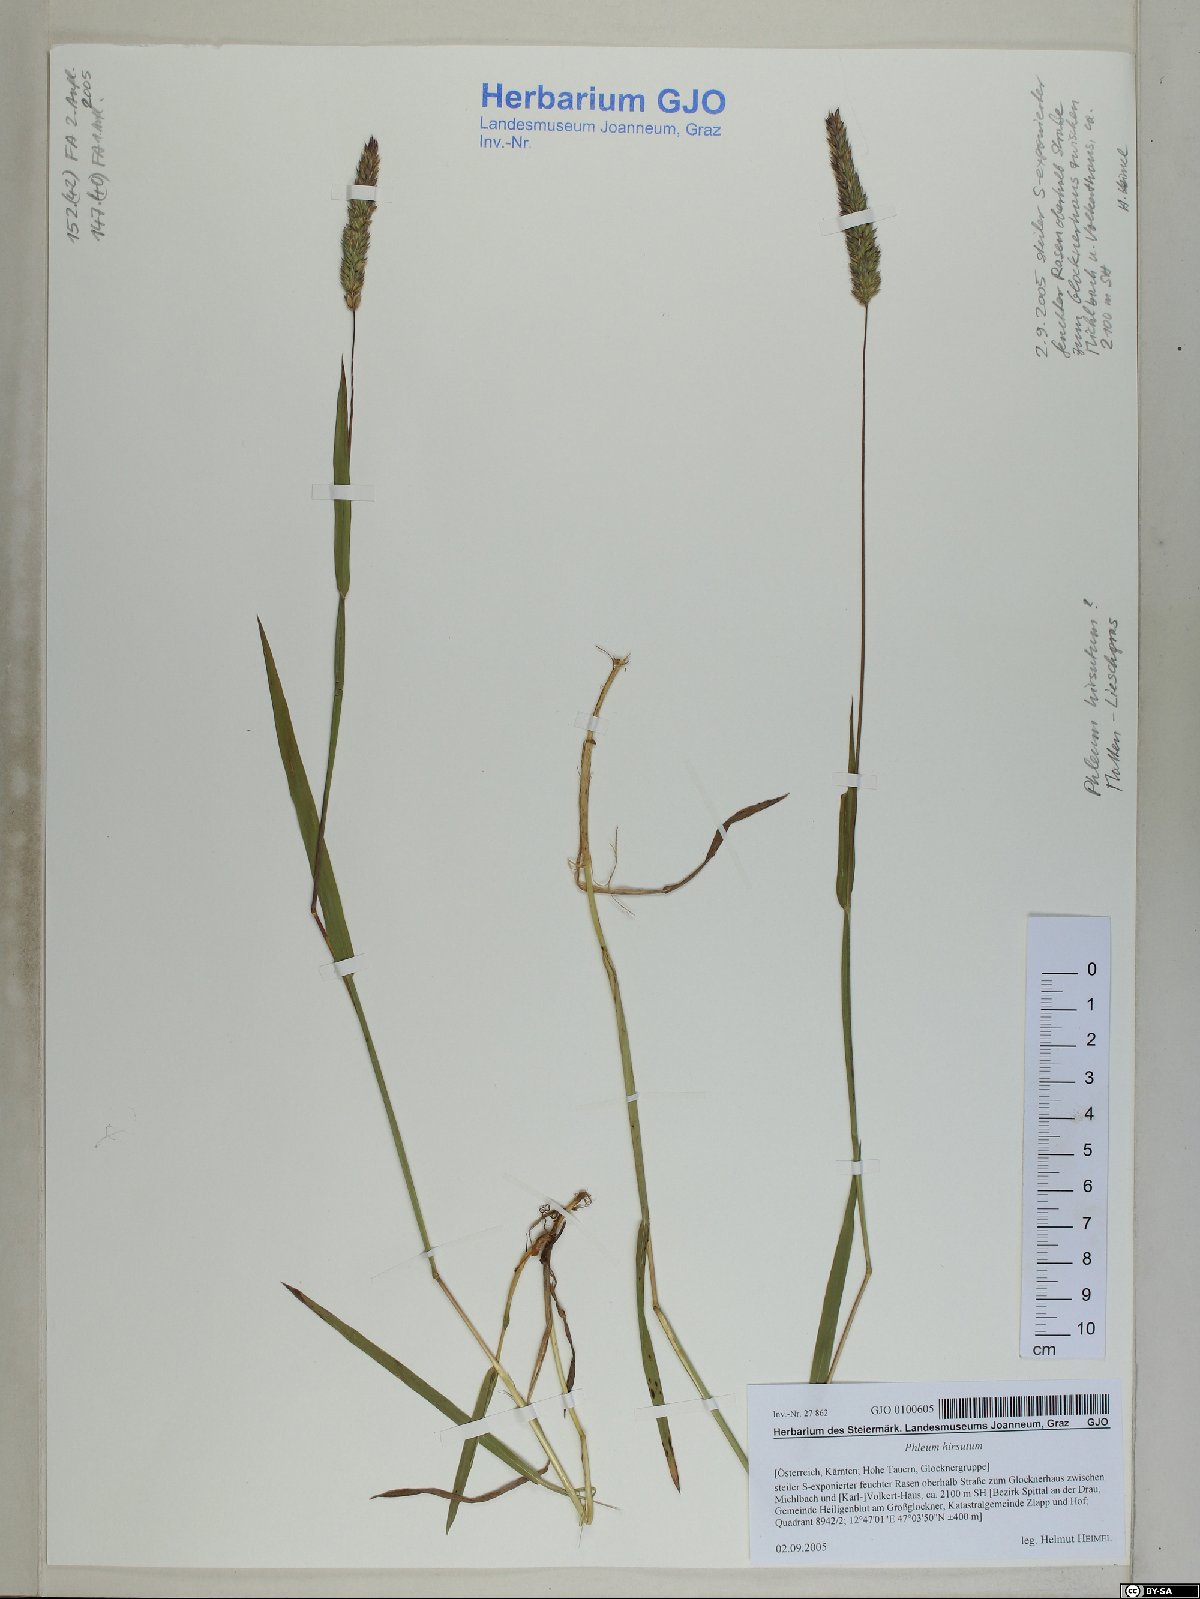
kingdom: Plantae
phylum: Tracheophyta
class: Liliopsida
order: Poales
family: Poaceae
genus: Phleum
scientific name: Phleum hirsutum
